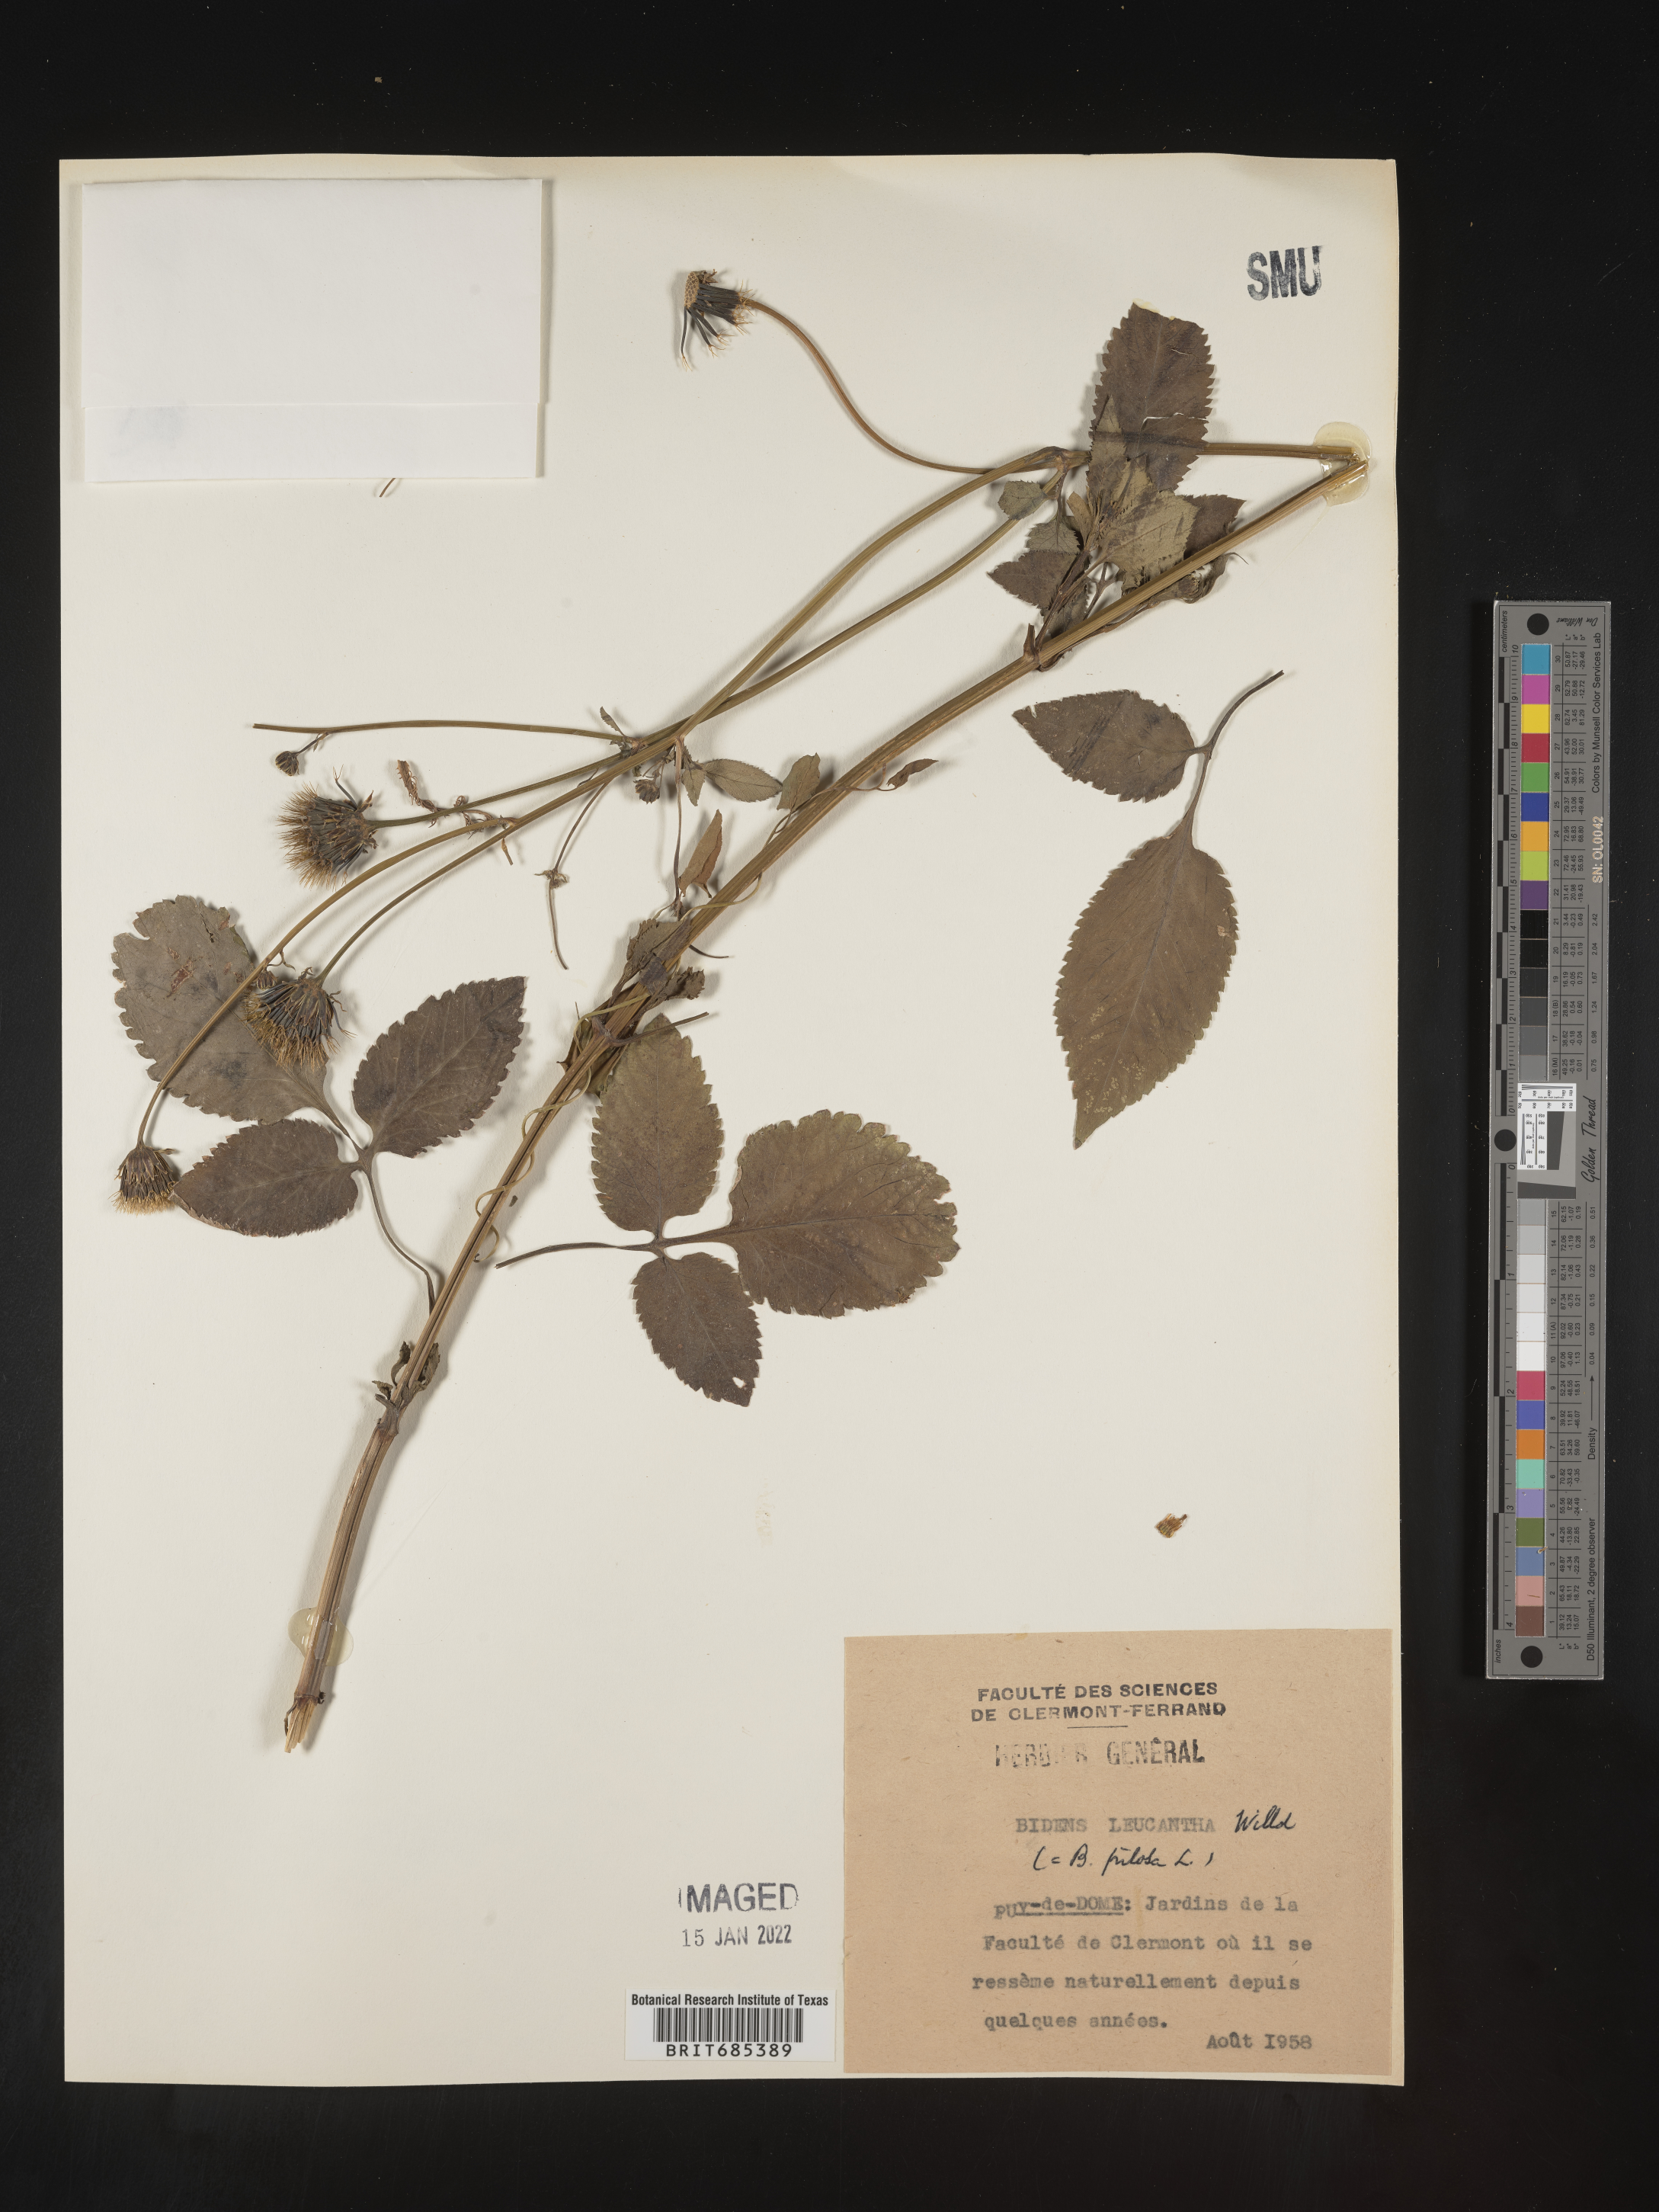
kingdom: Plantae
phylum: Tracheophyta
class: Magnoliopsida
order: Asterales
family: Asteraceae
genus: Bidens
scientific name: Bidens
